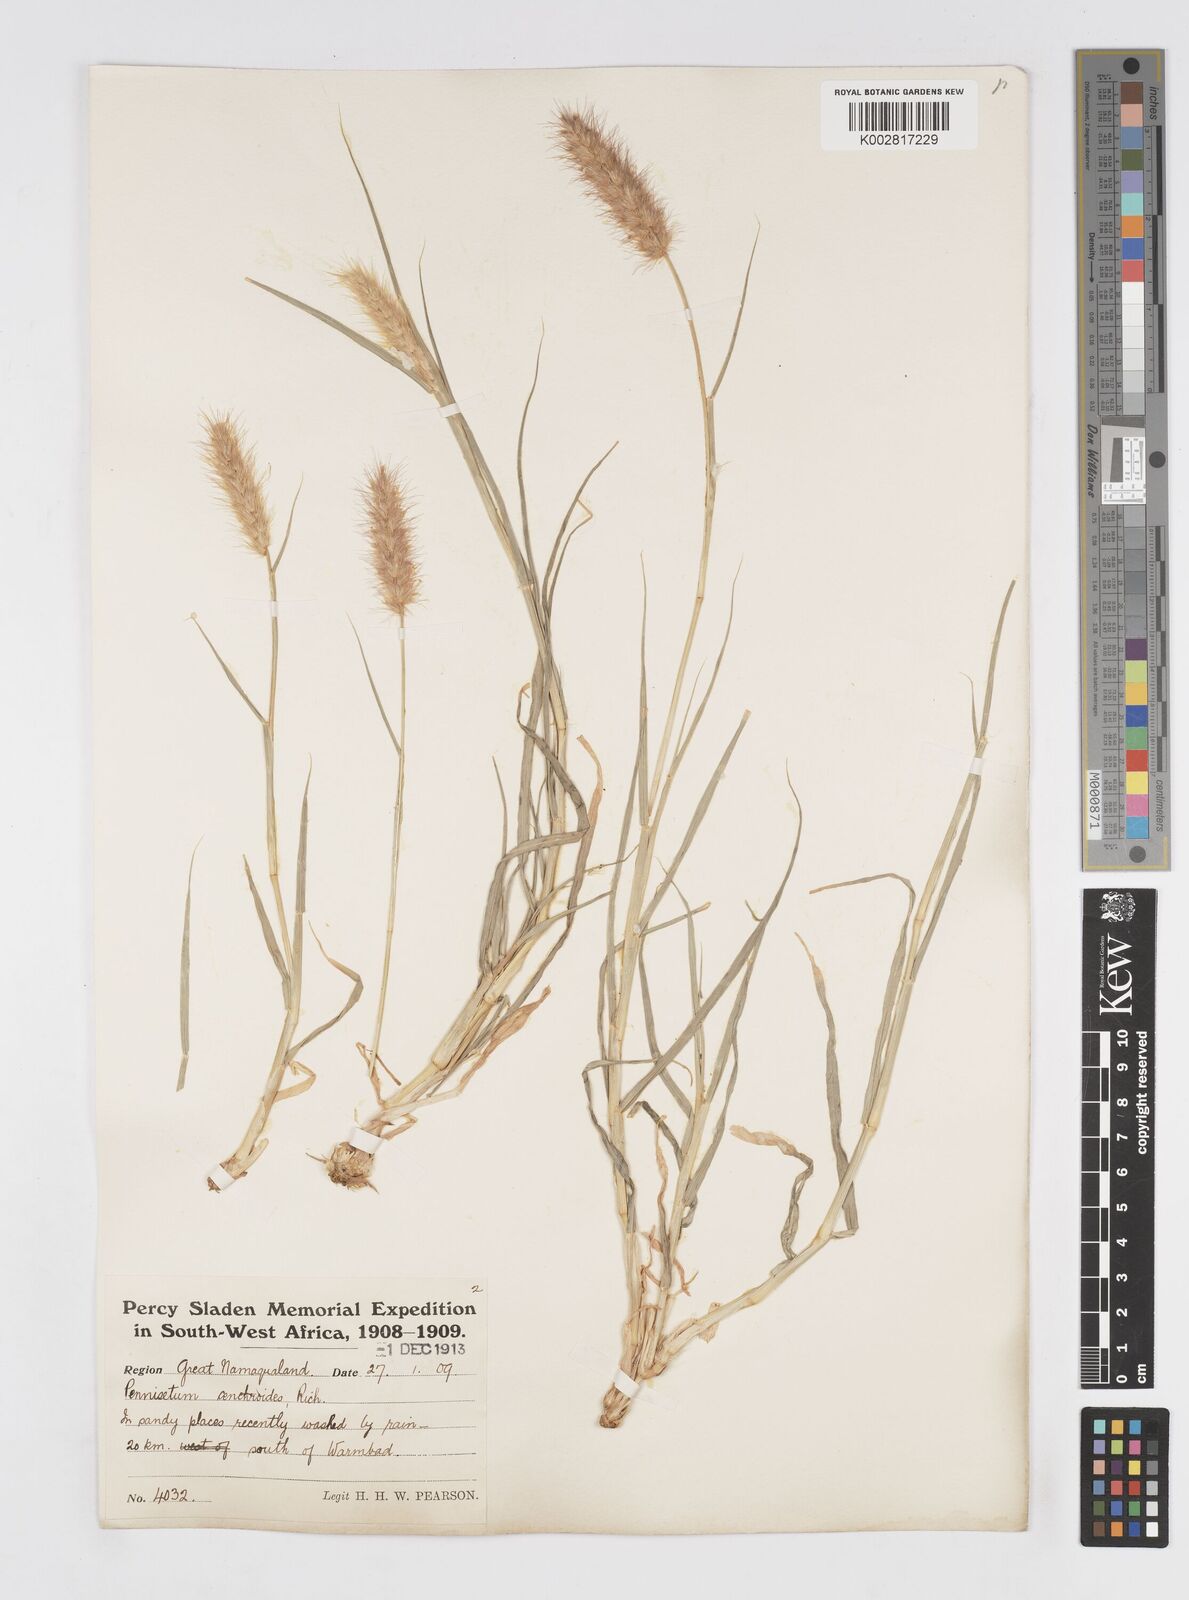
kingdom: Plantae
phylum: Tracheophyta
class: Liliopsida
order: Poales
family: Poaceae
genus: Cenchrus
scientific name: Cenchrus ciliaris
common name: Buffelgrass
